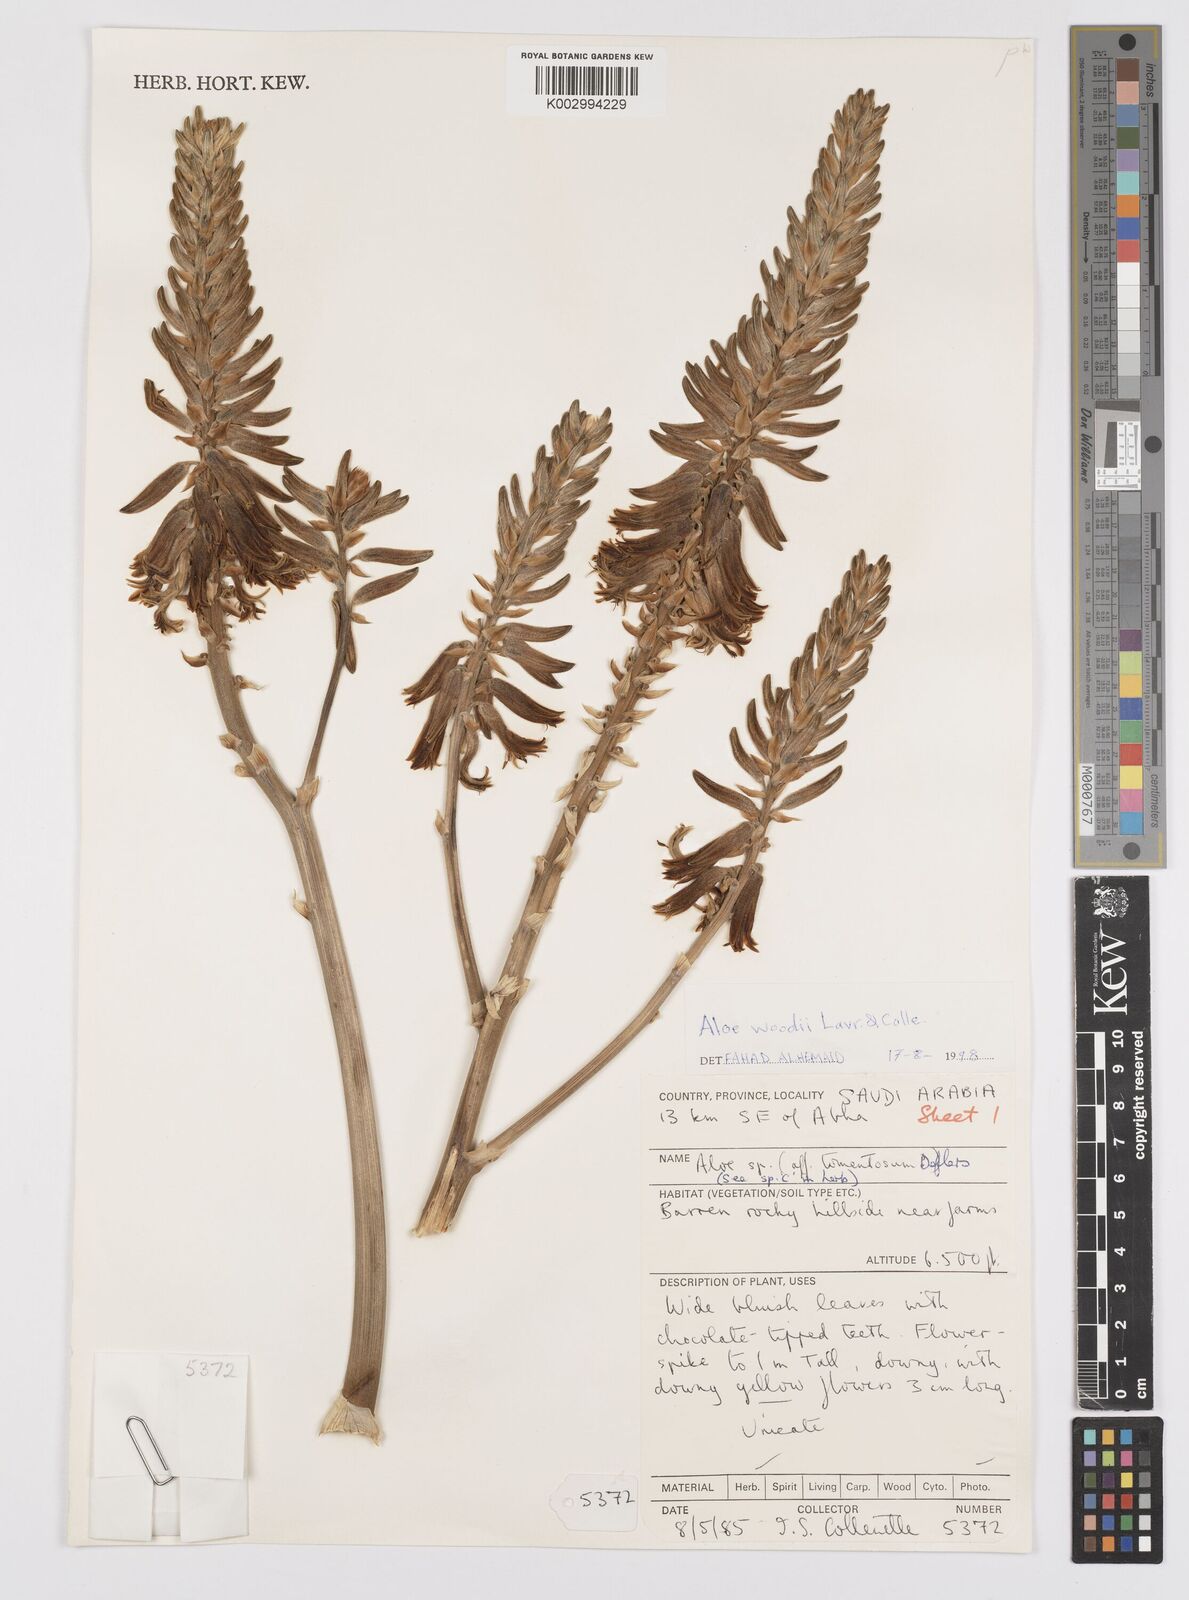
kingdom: Plantae
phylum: Tracheophyta
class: Liliopsida
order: Asparagales
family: Asphodelaceae
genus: Aloe
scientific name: Aloe woodii
